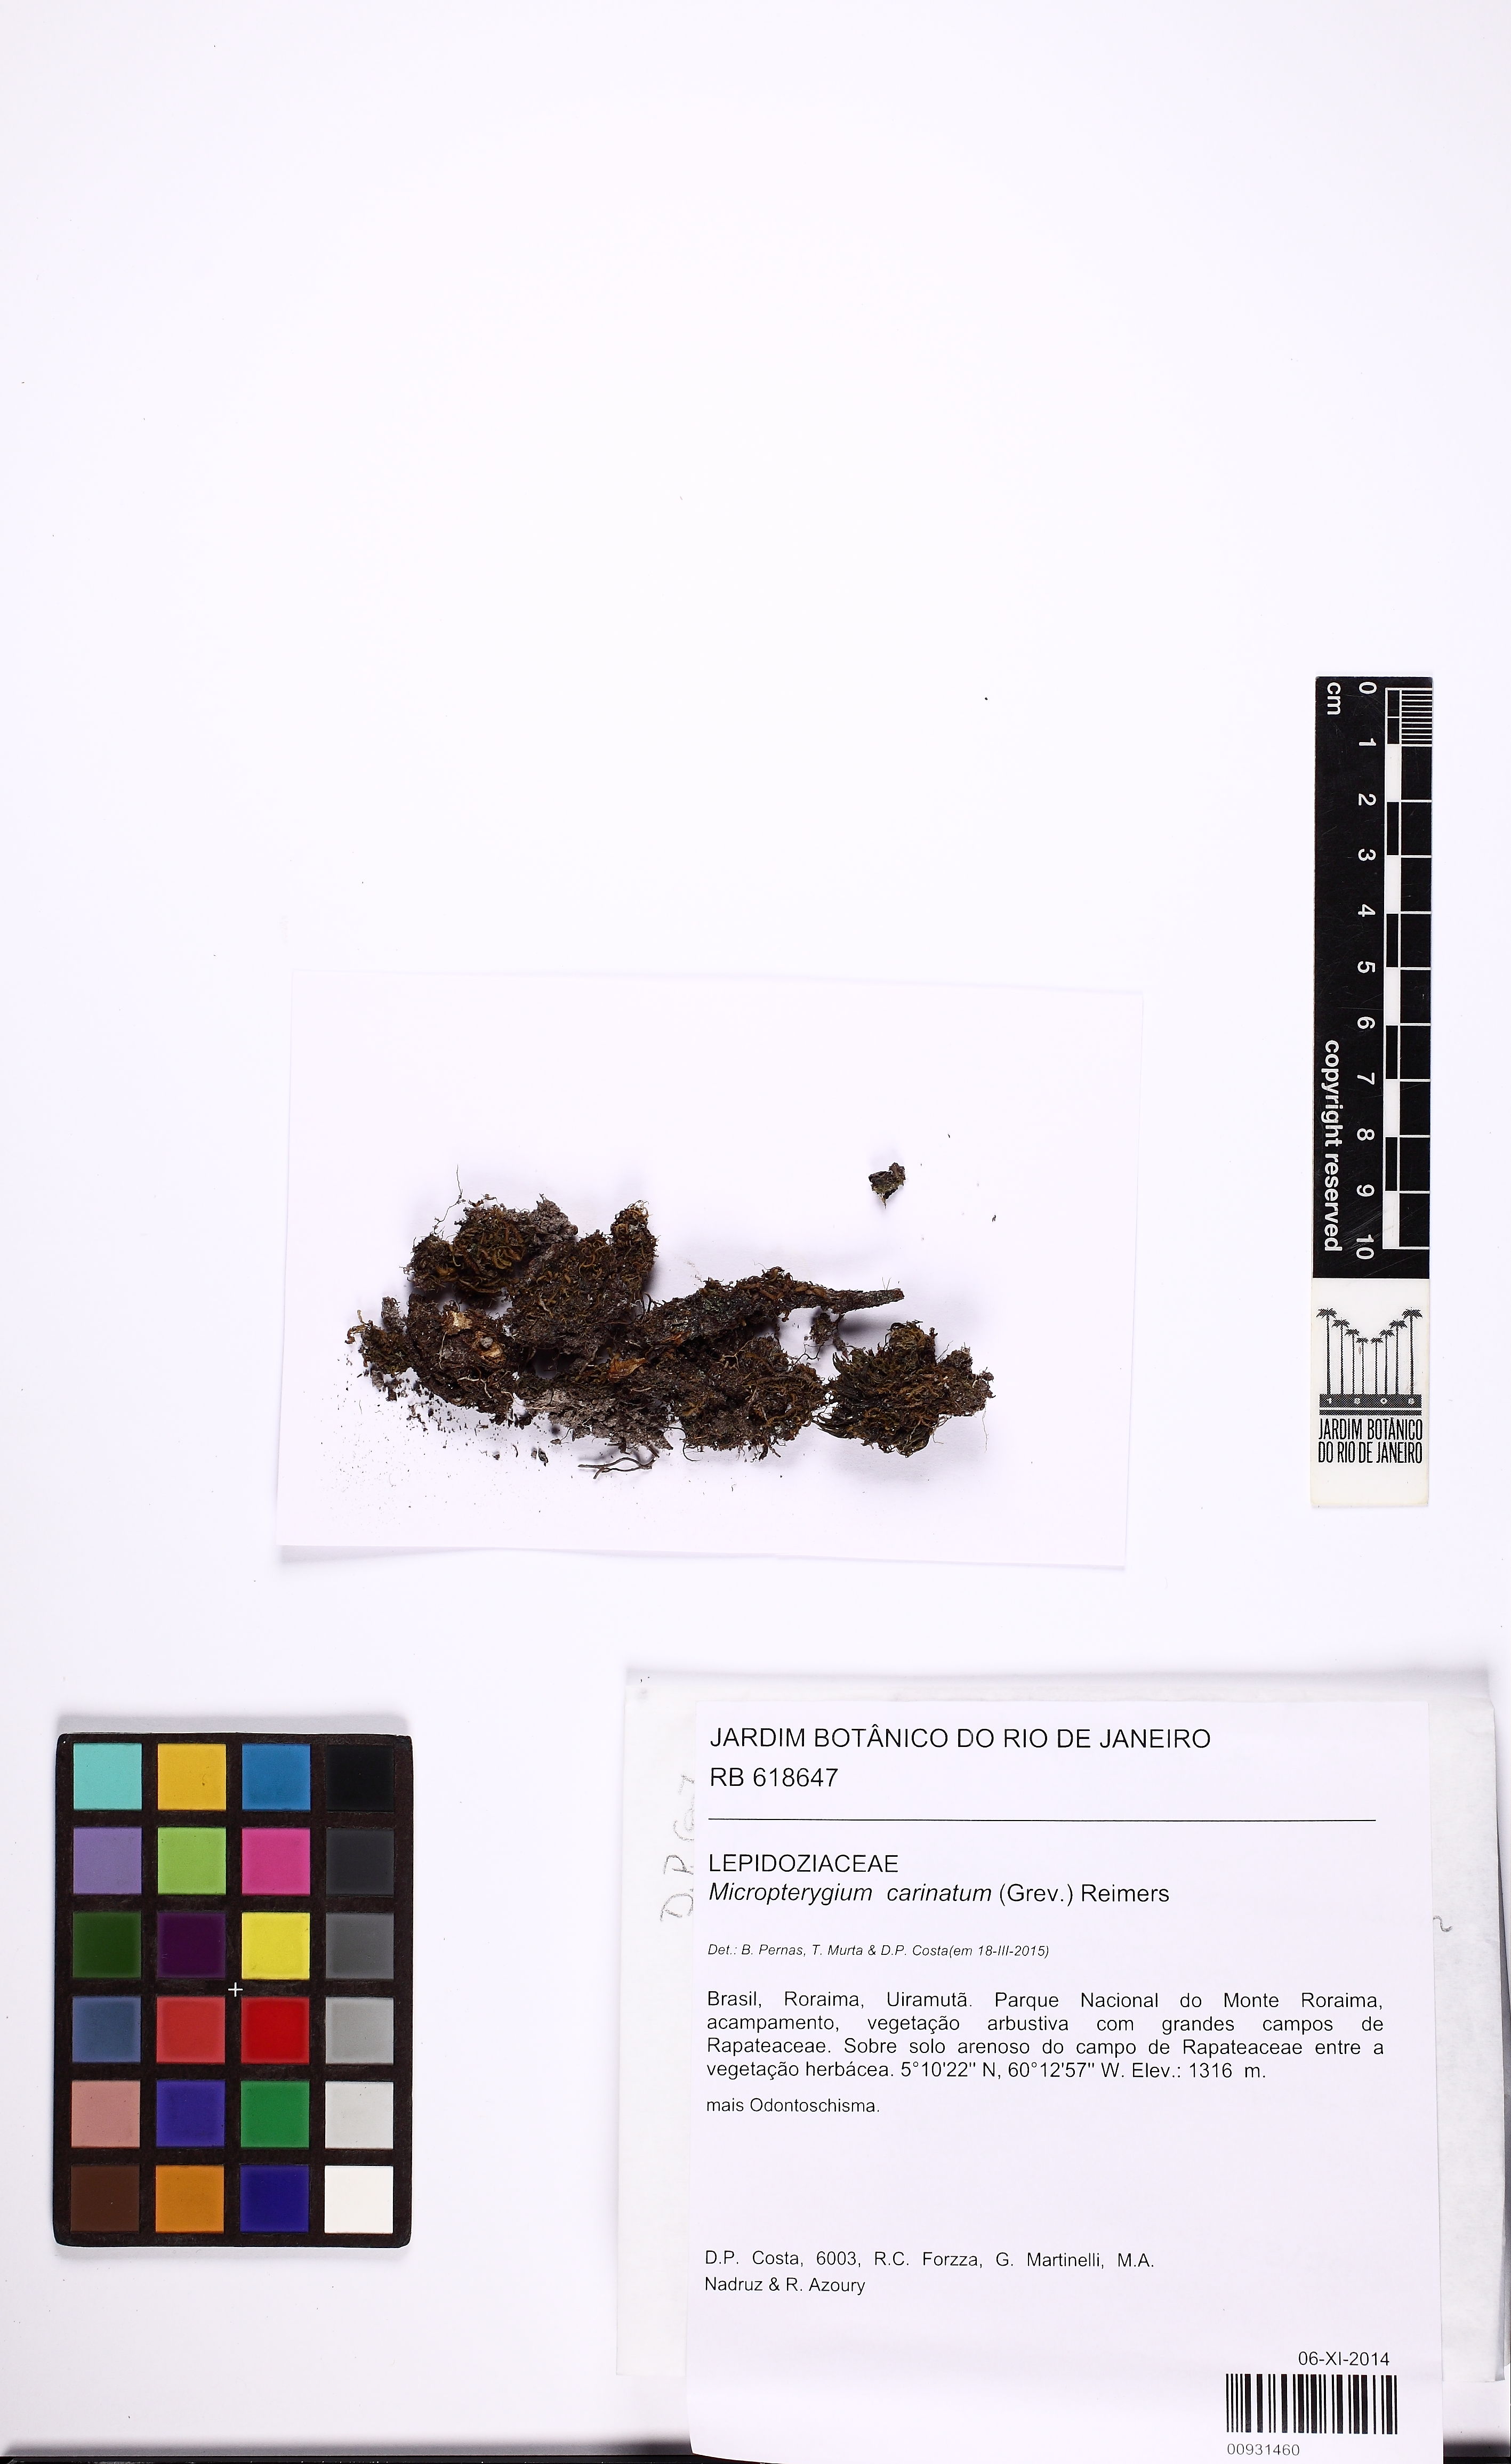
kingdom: Plantae
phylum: Marchantiophyta
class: Jungermanniopsida
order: Jungermanniales
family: Lepidoziaceae
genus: Micropterygium
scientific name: Micropterygium carinatum
